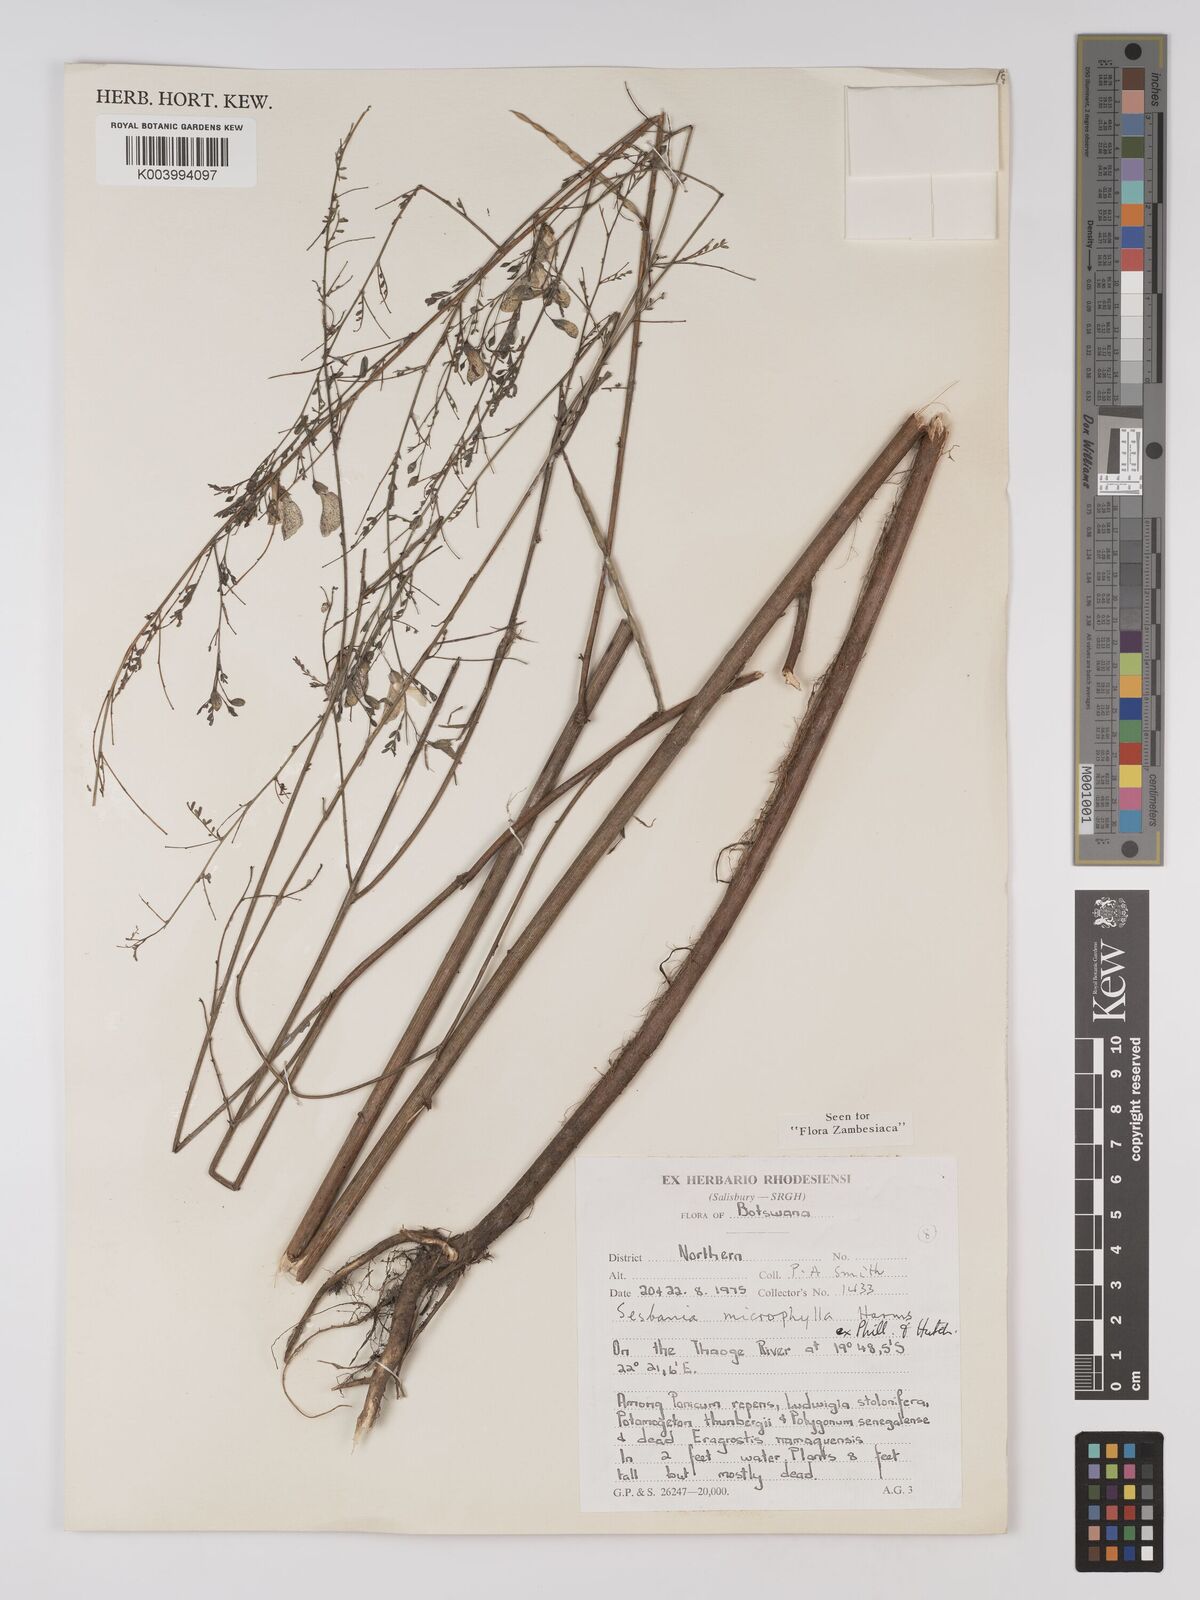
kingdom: Plantae
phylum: Tracheophyta
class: Magnoliopsida
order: Fabales
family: Fabaceae
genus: Sesbania
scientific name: Sesbania microphylla
